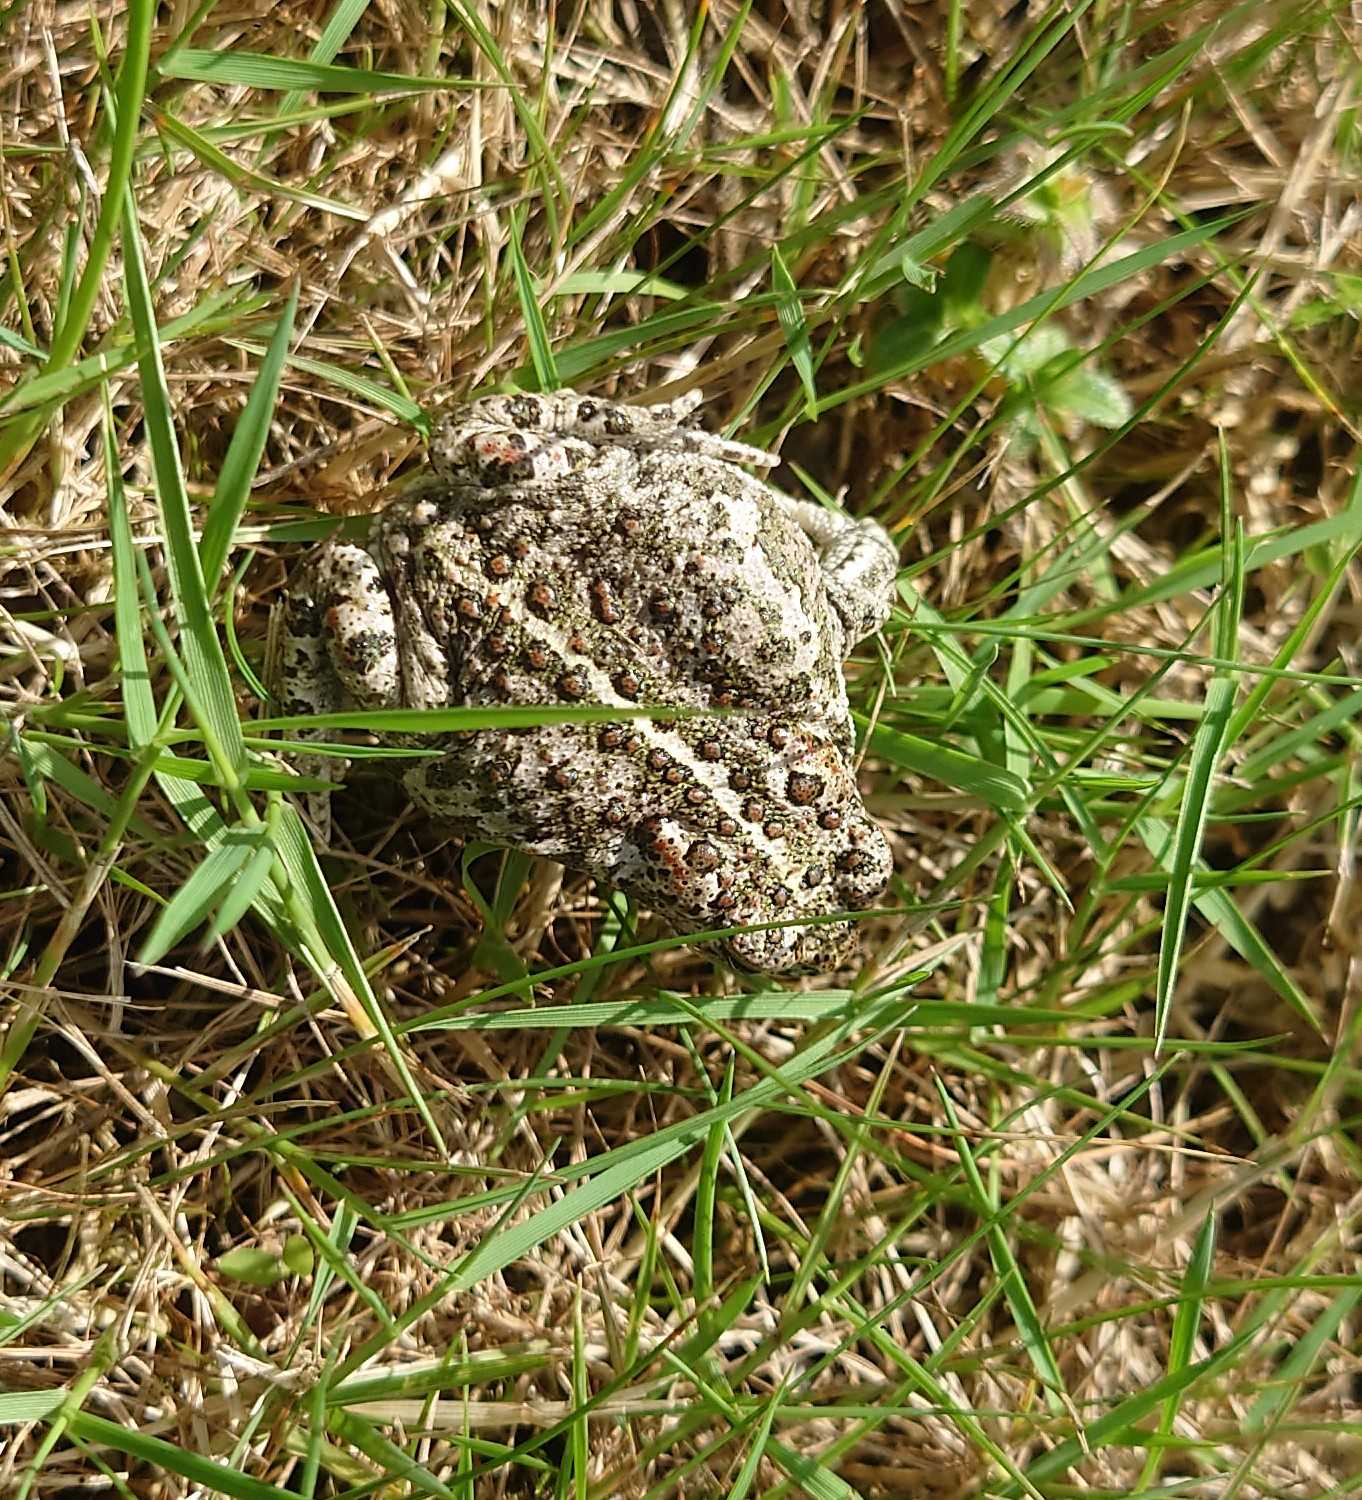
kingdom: Animalia
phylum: Chordata
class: Amphibia
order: Anura
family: Bufonidae
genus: Epidalea
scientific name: Epidalea calamita
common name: Strandtudse
